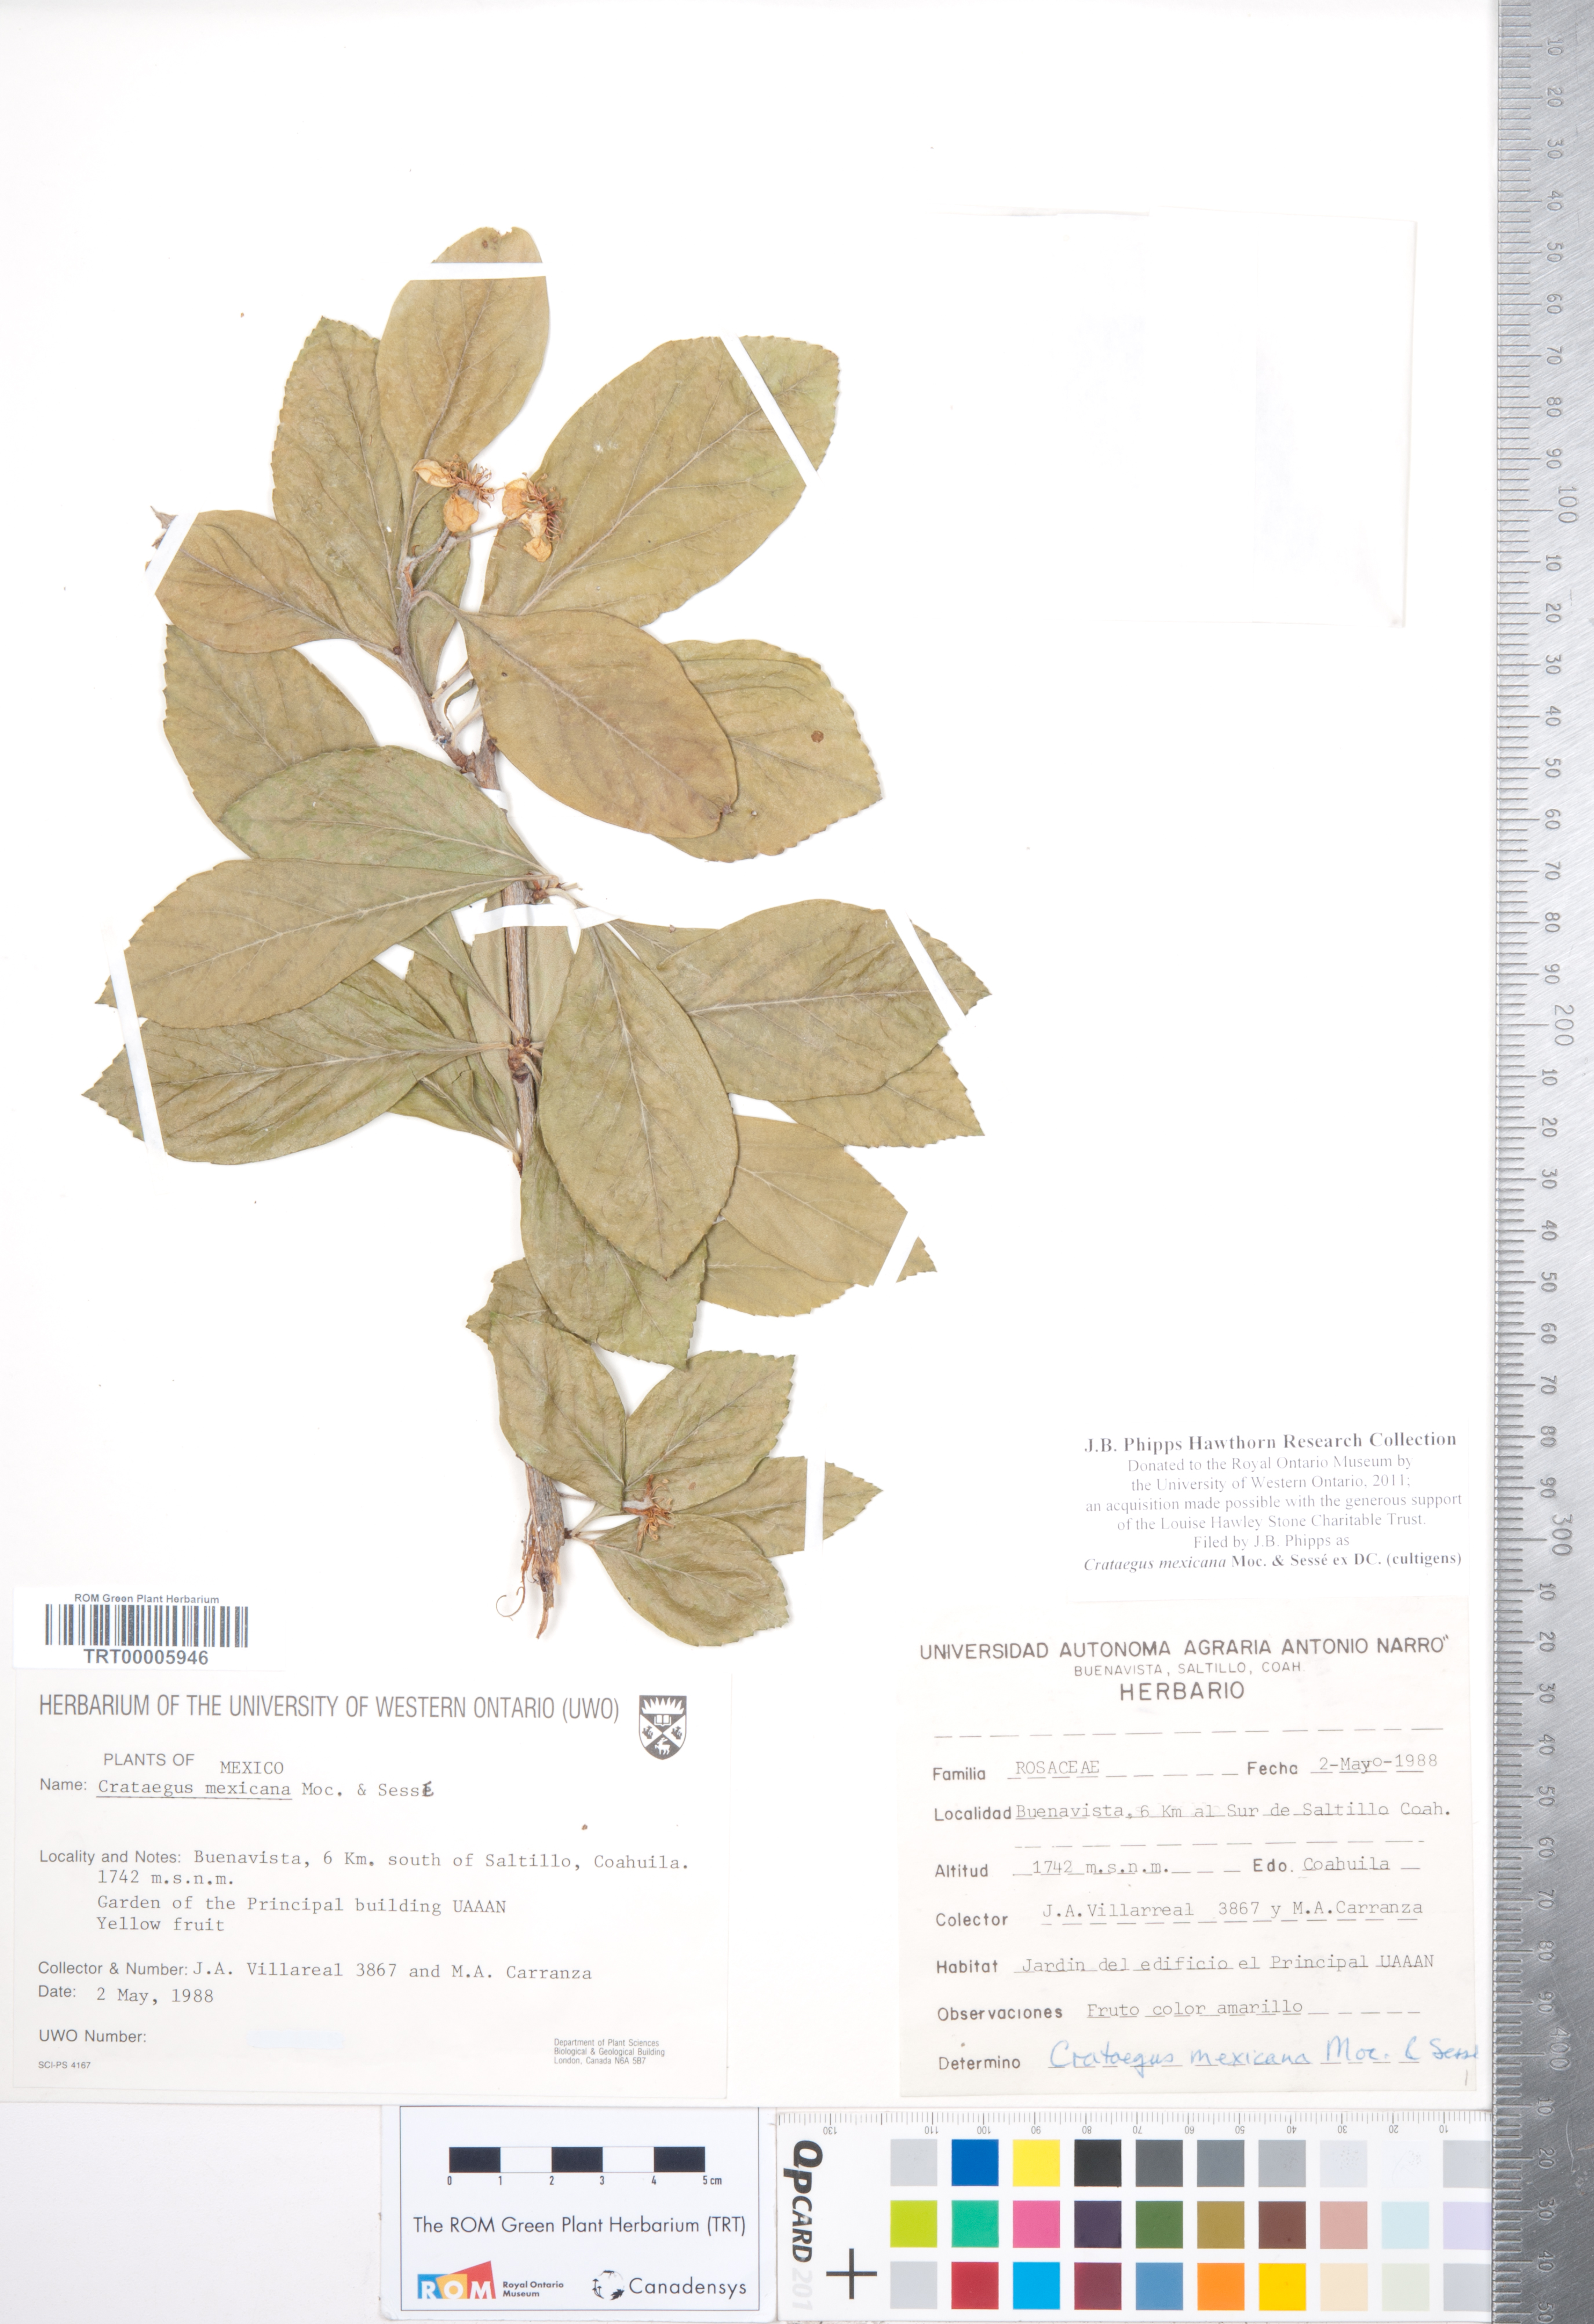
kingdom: Plantae
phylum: Tracheophyta
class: Magnoliopsida
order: Rosales
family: Rosaceae
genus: Crataegus
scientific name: Crataegus mexicana
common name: Mexican hawthorn
